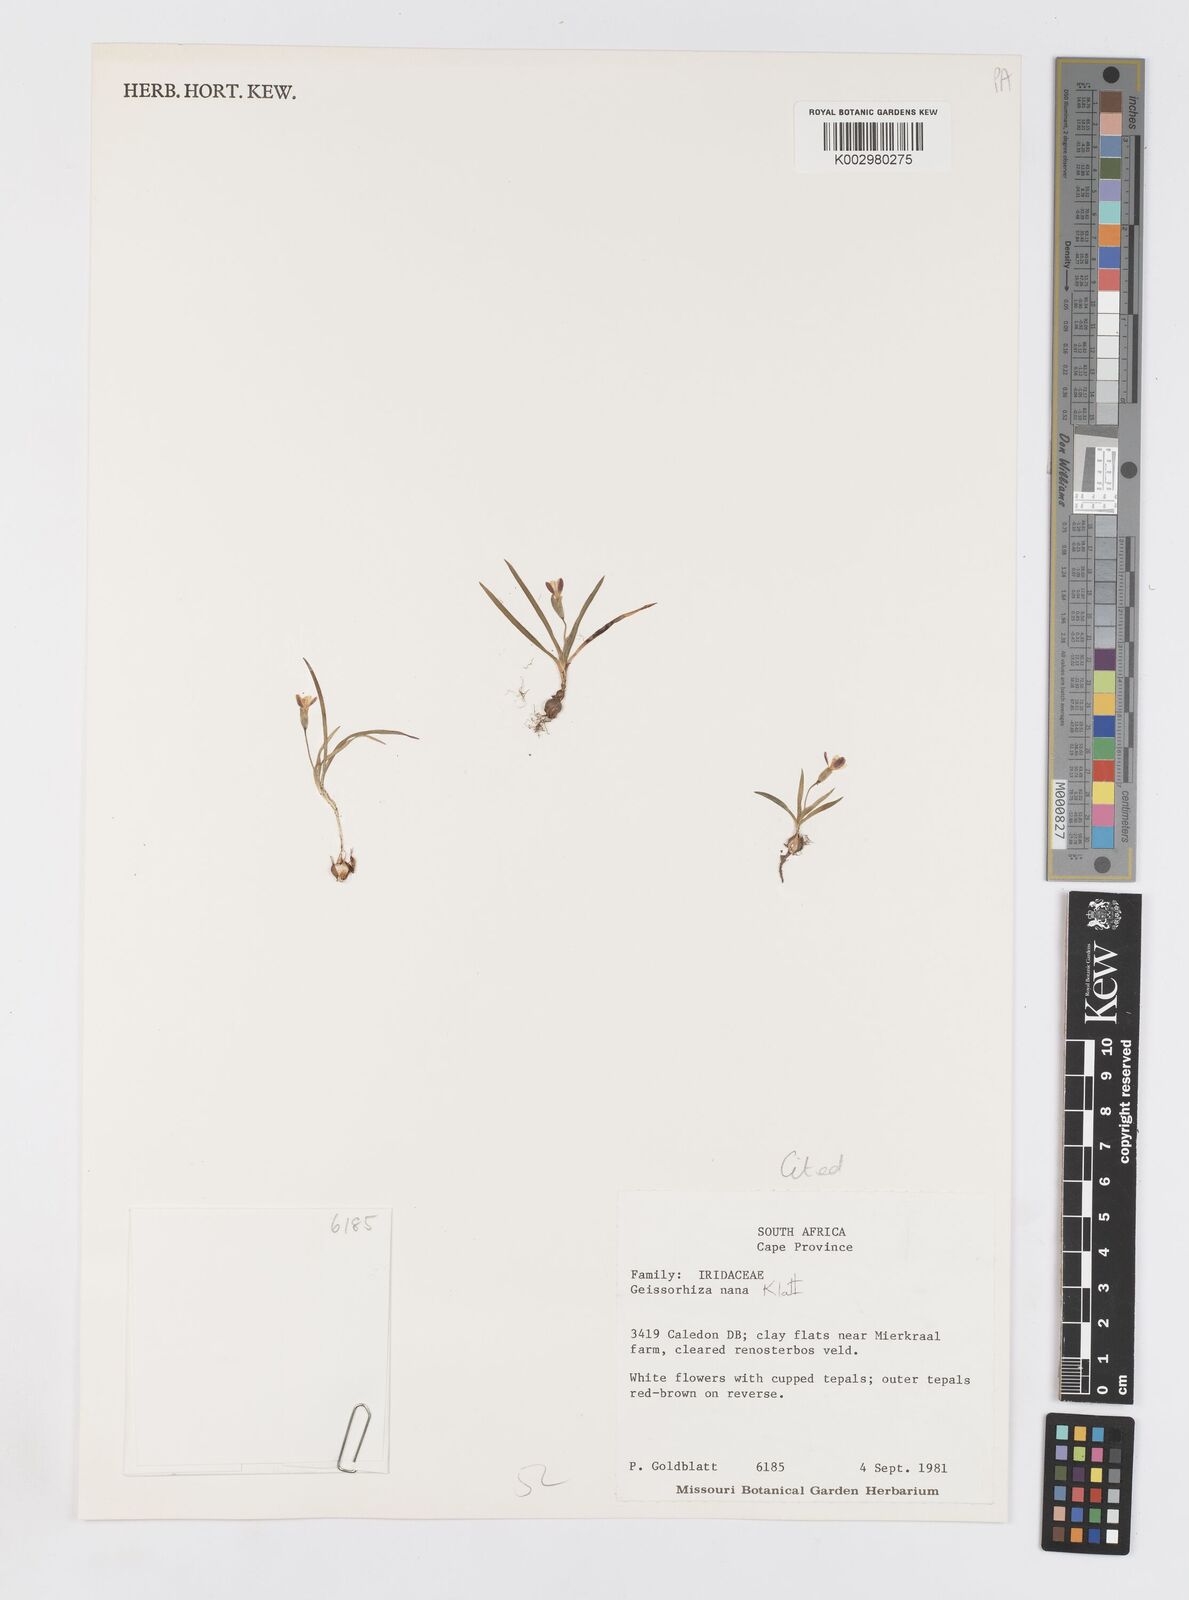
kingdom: Plantae
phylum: Tracheophyta
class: Liliopsida
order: Asparagales
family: Iridaceae
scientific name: Iridaceae
